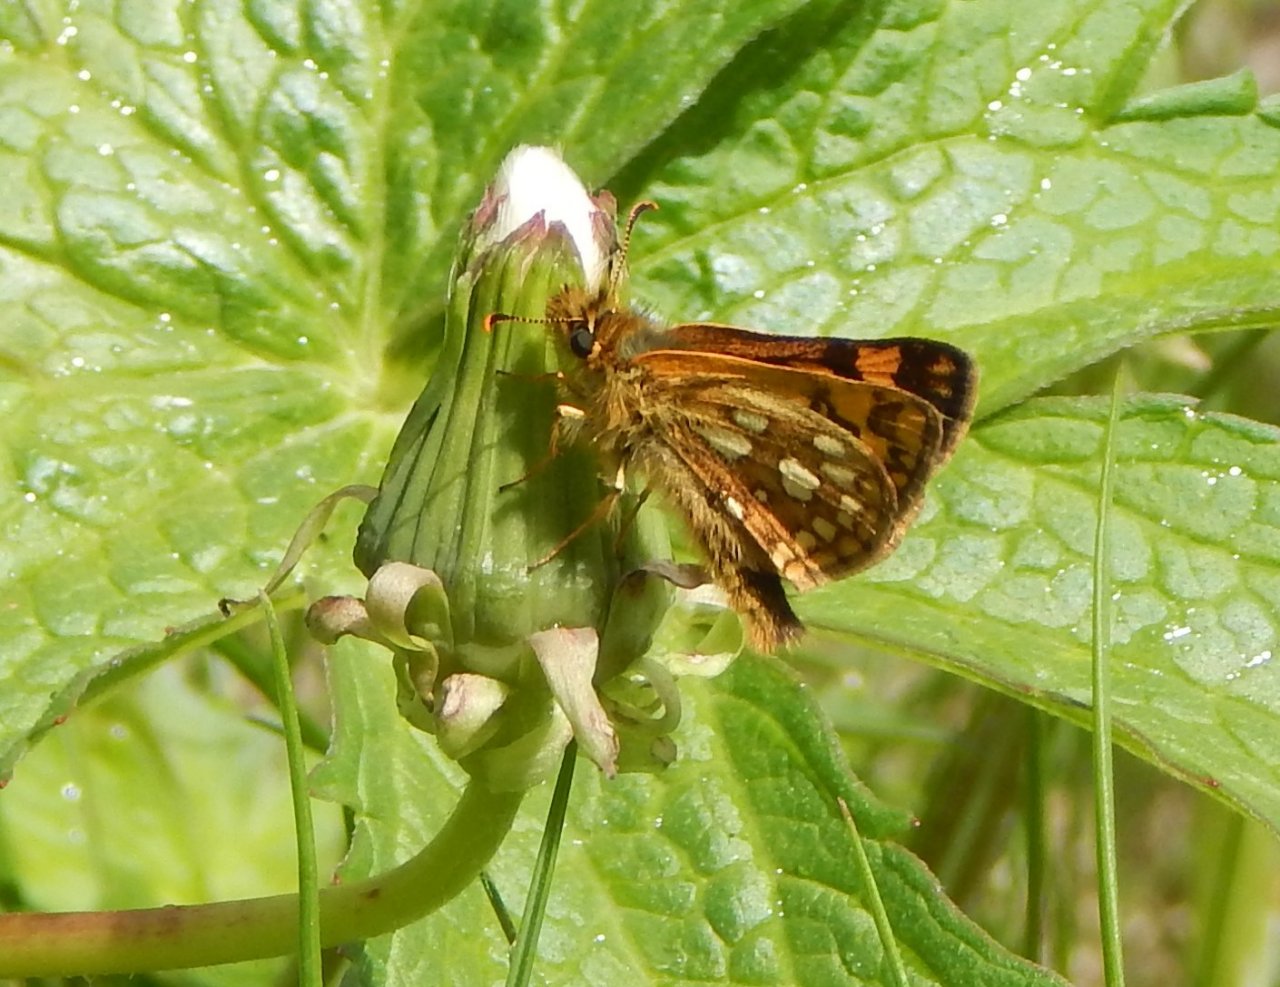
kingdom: Animalia
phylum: Arthropoda
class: Insecta
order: Lepidoptera
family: Hesperiidae
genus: Carterocephalus
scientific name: Carterocephalus palaemon
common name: Chequered Skipper
